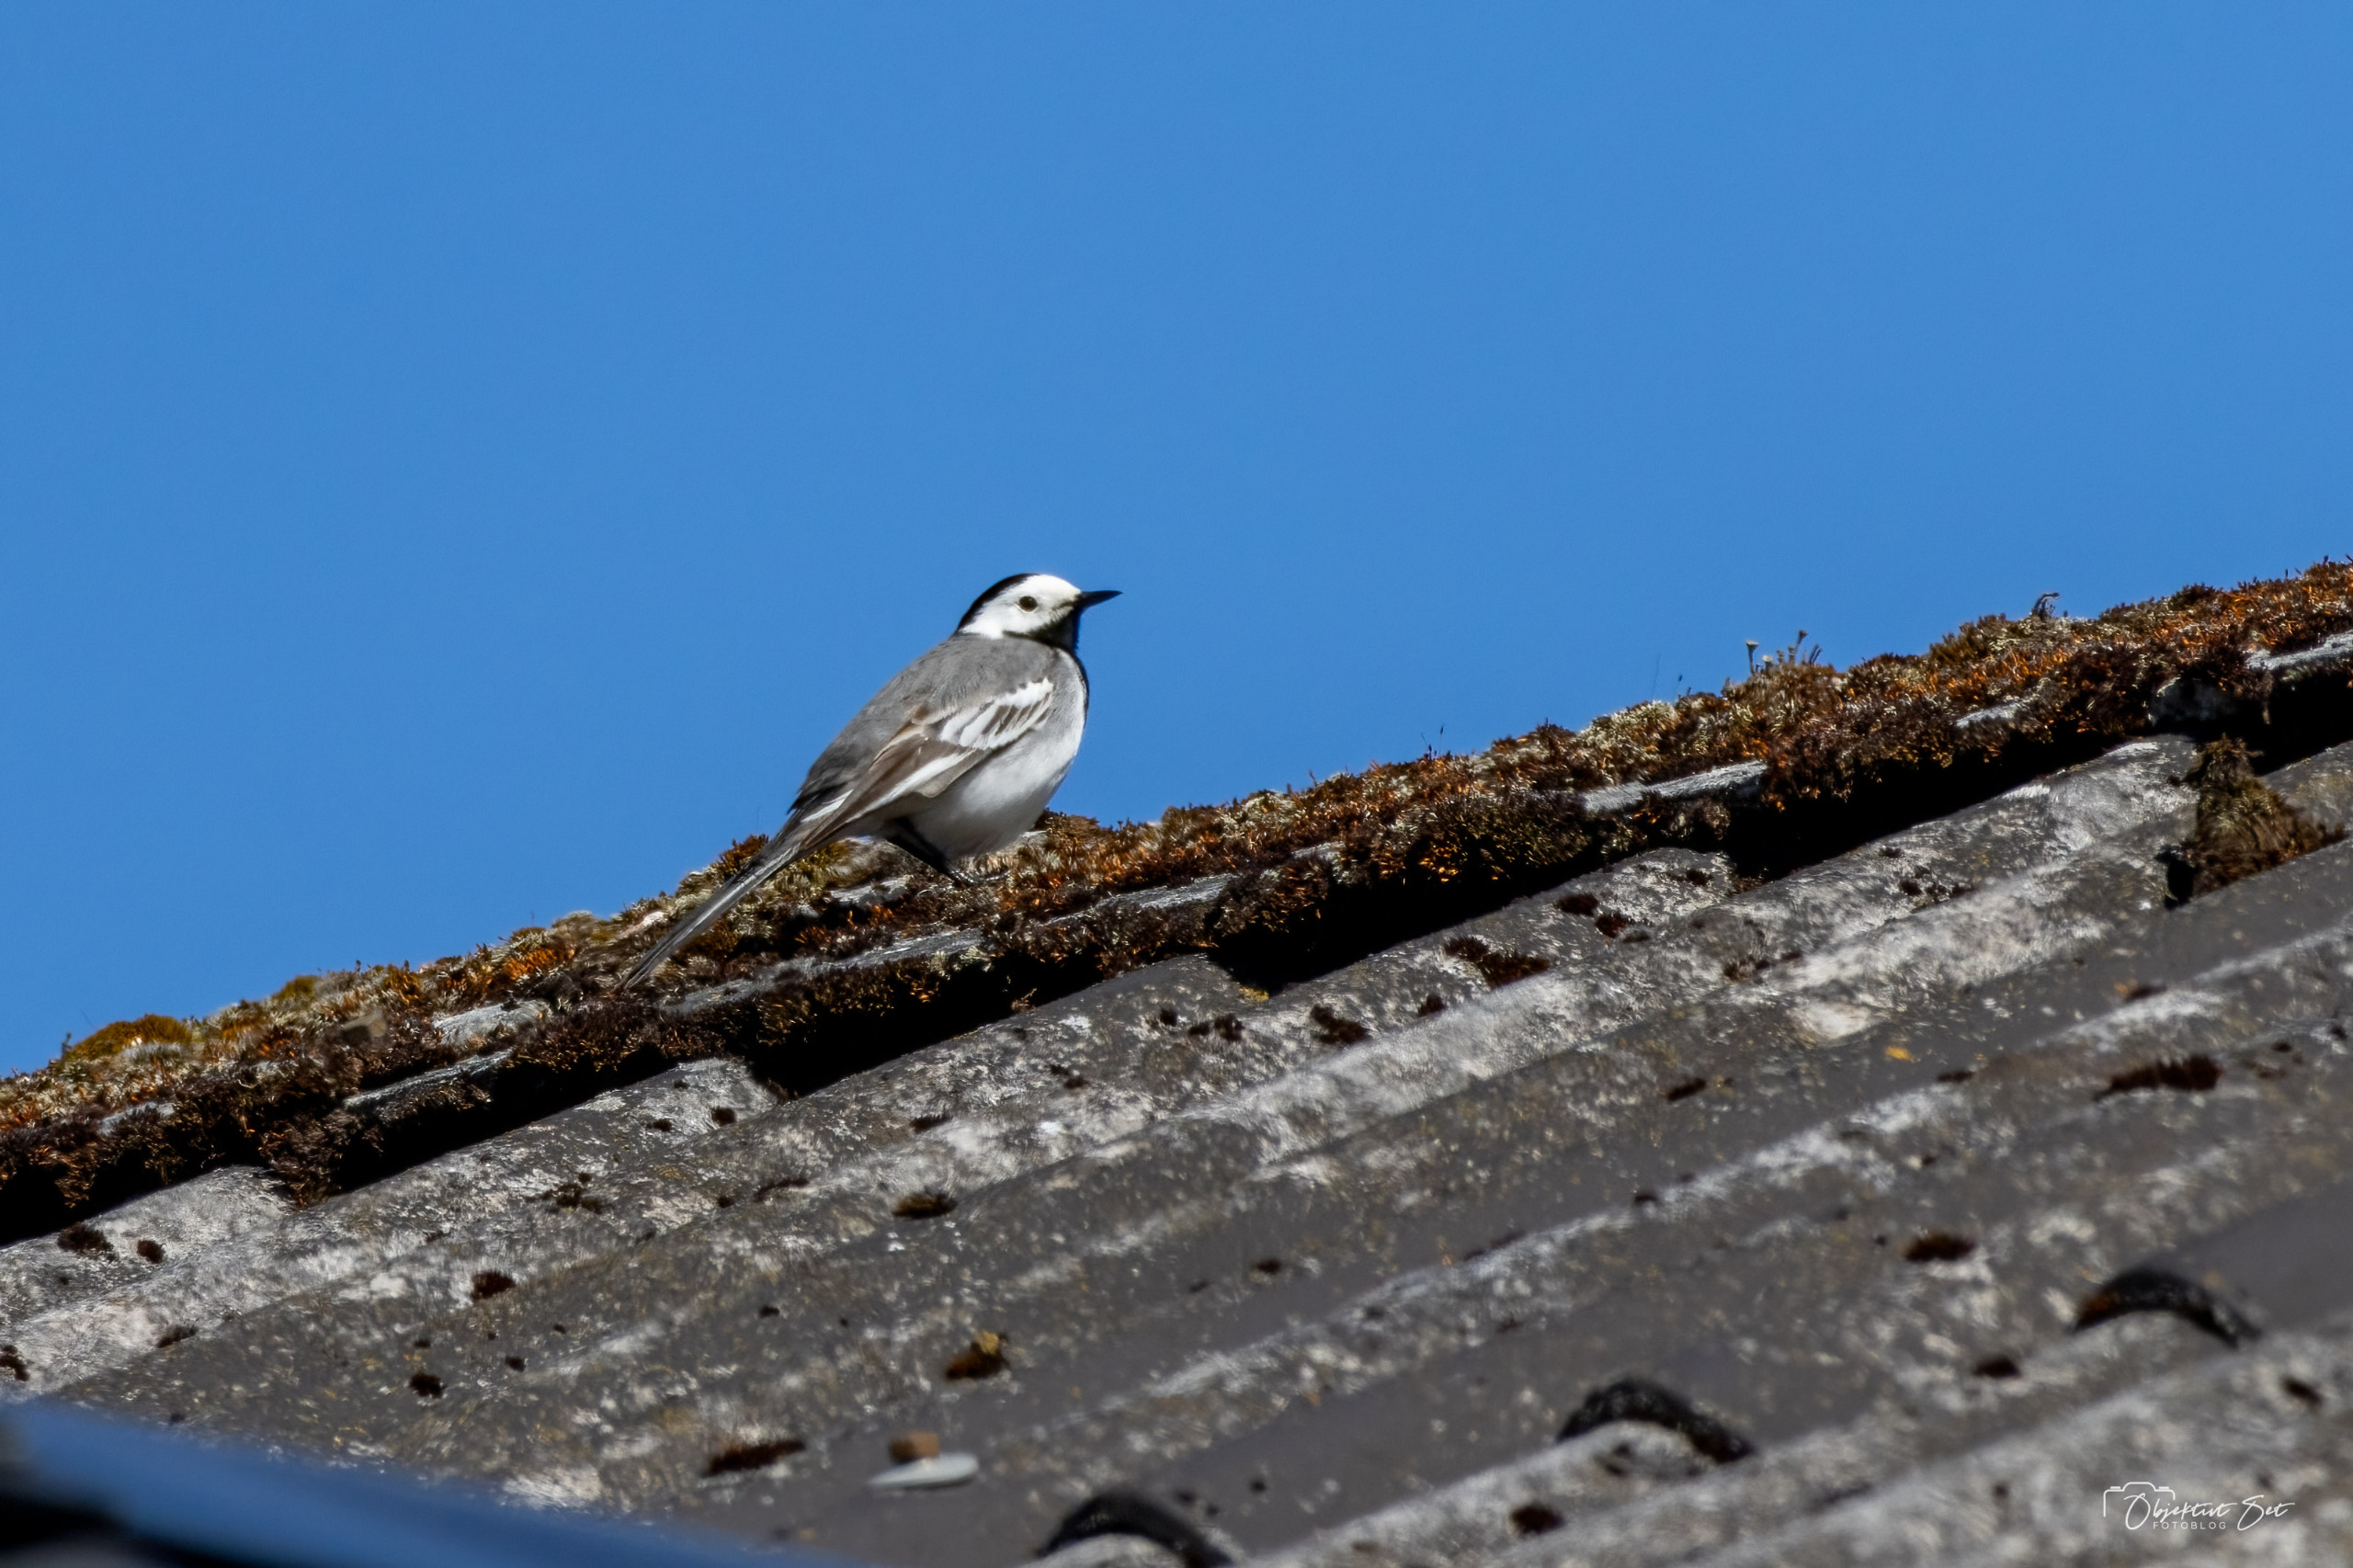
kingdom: Animalia
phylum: Chordata
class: Aves
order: Passeriformes
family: Motacillidae
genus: Motacilla
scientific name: Motacilla alba
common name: Hvid vipstjert
